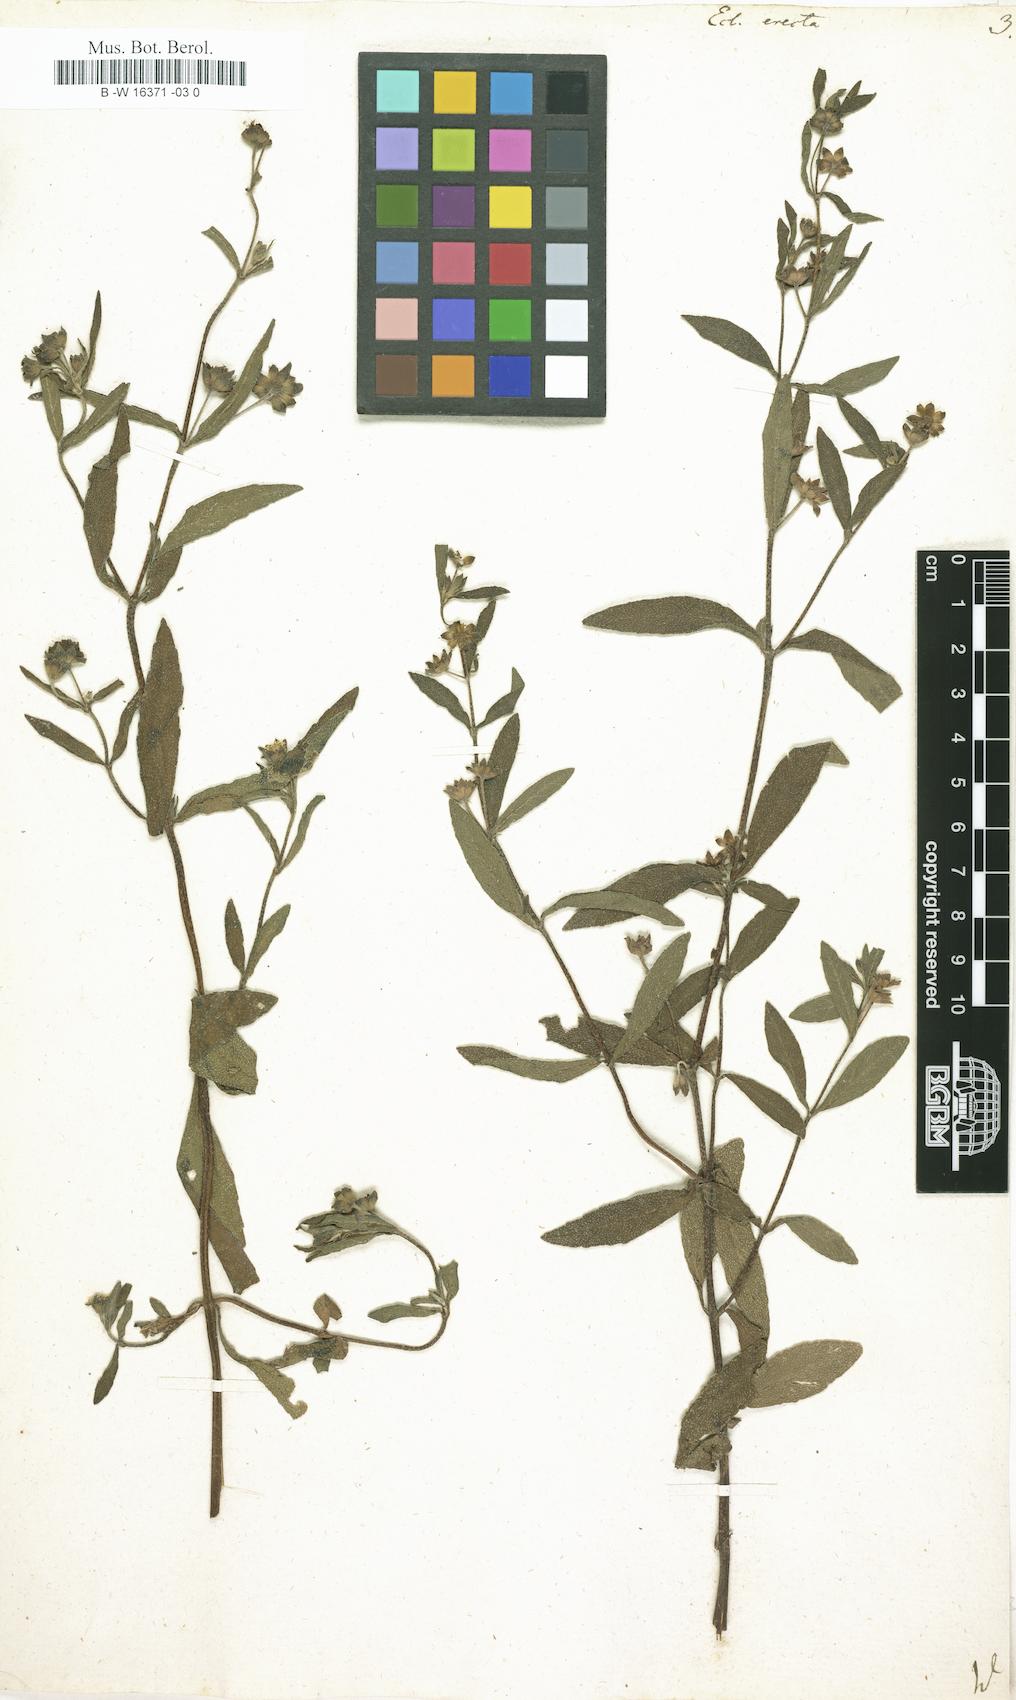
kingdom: Plantae
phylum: Tracheophyta
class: Magnoliopsida
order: Asterales
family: Asteraceae
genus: Eclipta
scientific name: Eclipta alba
